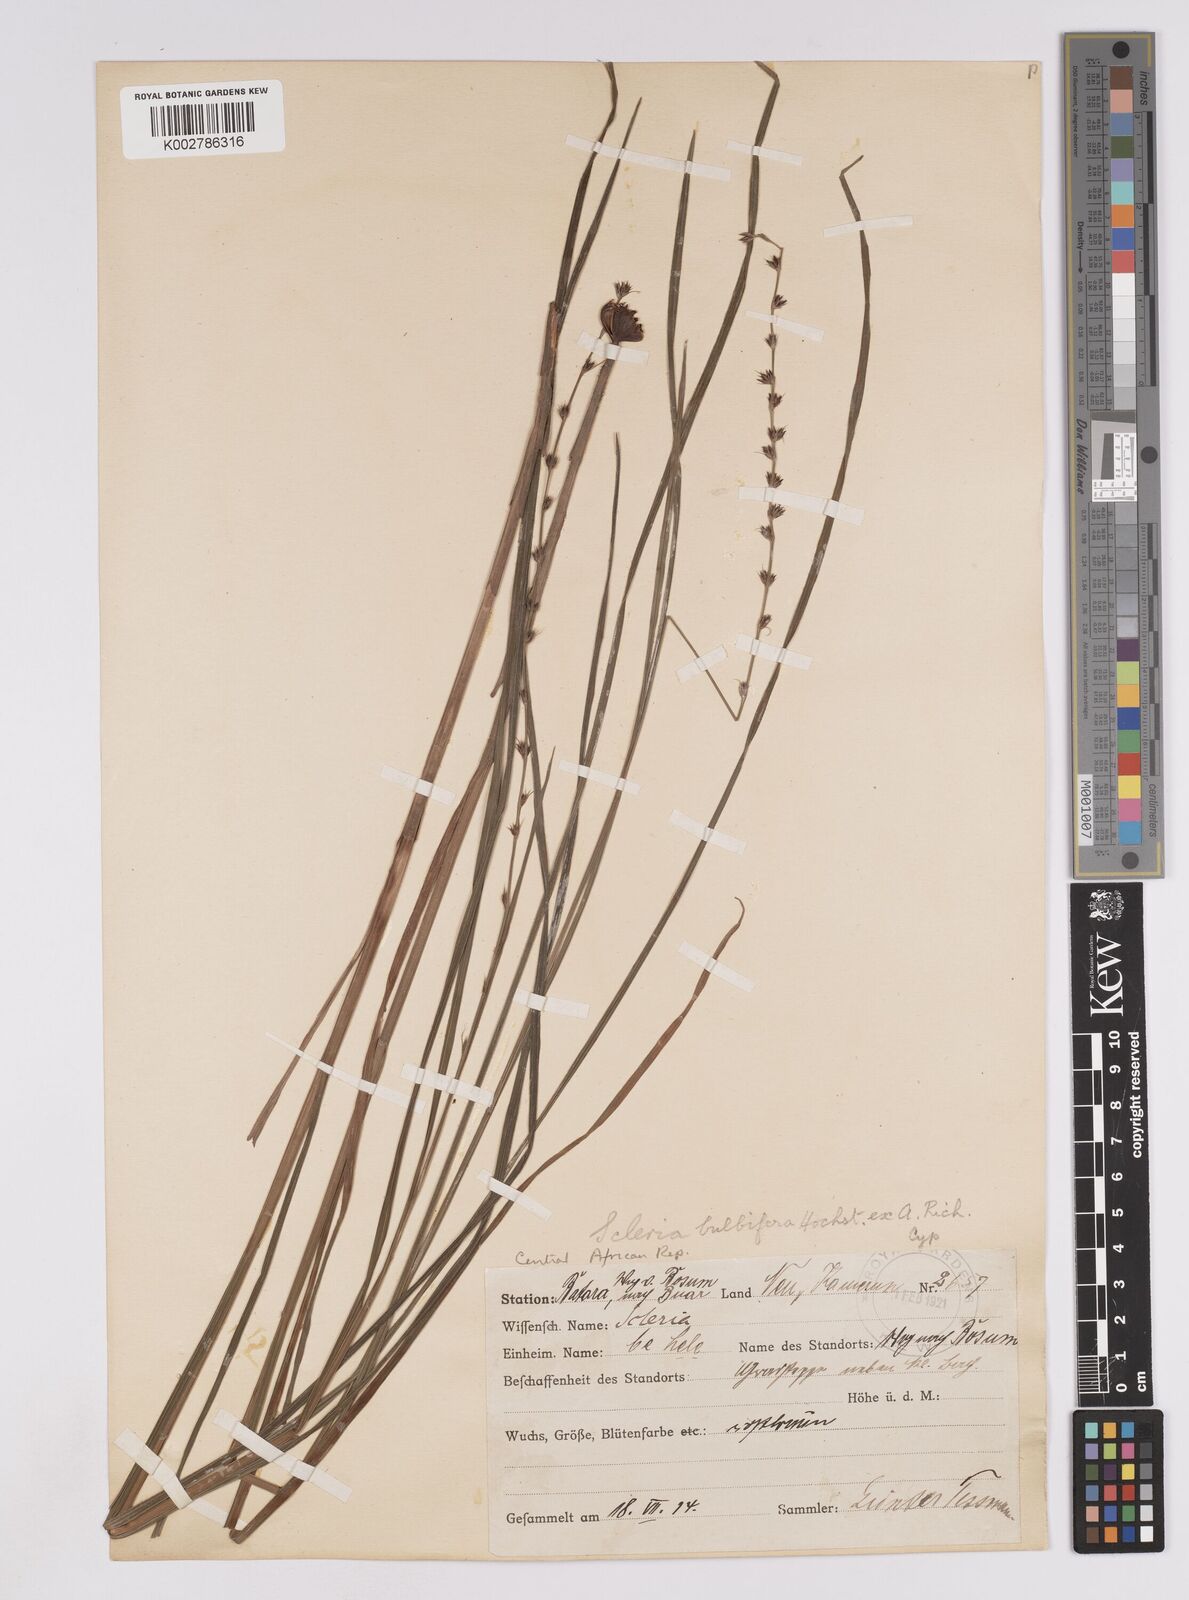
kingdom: Plantae
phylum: Tracheophyta
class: Liliopsida
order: Poales
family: Cyperaceae
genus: Scleria
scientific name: Scleria bulbifera
